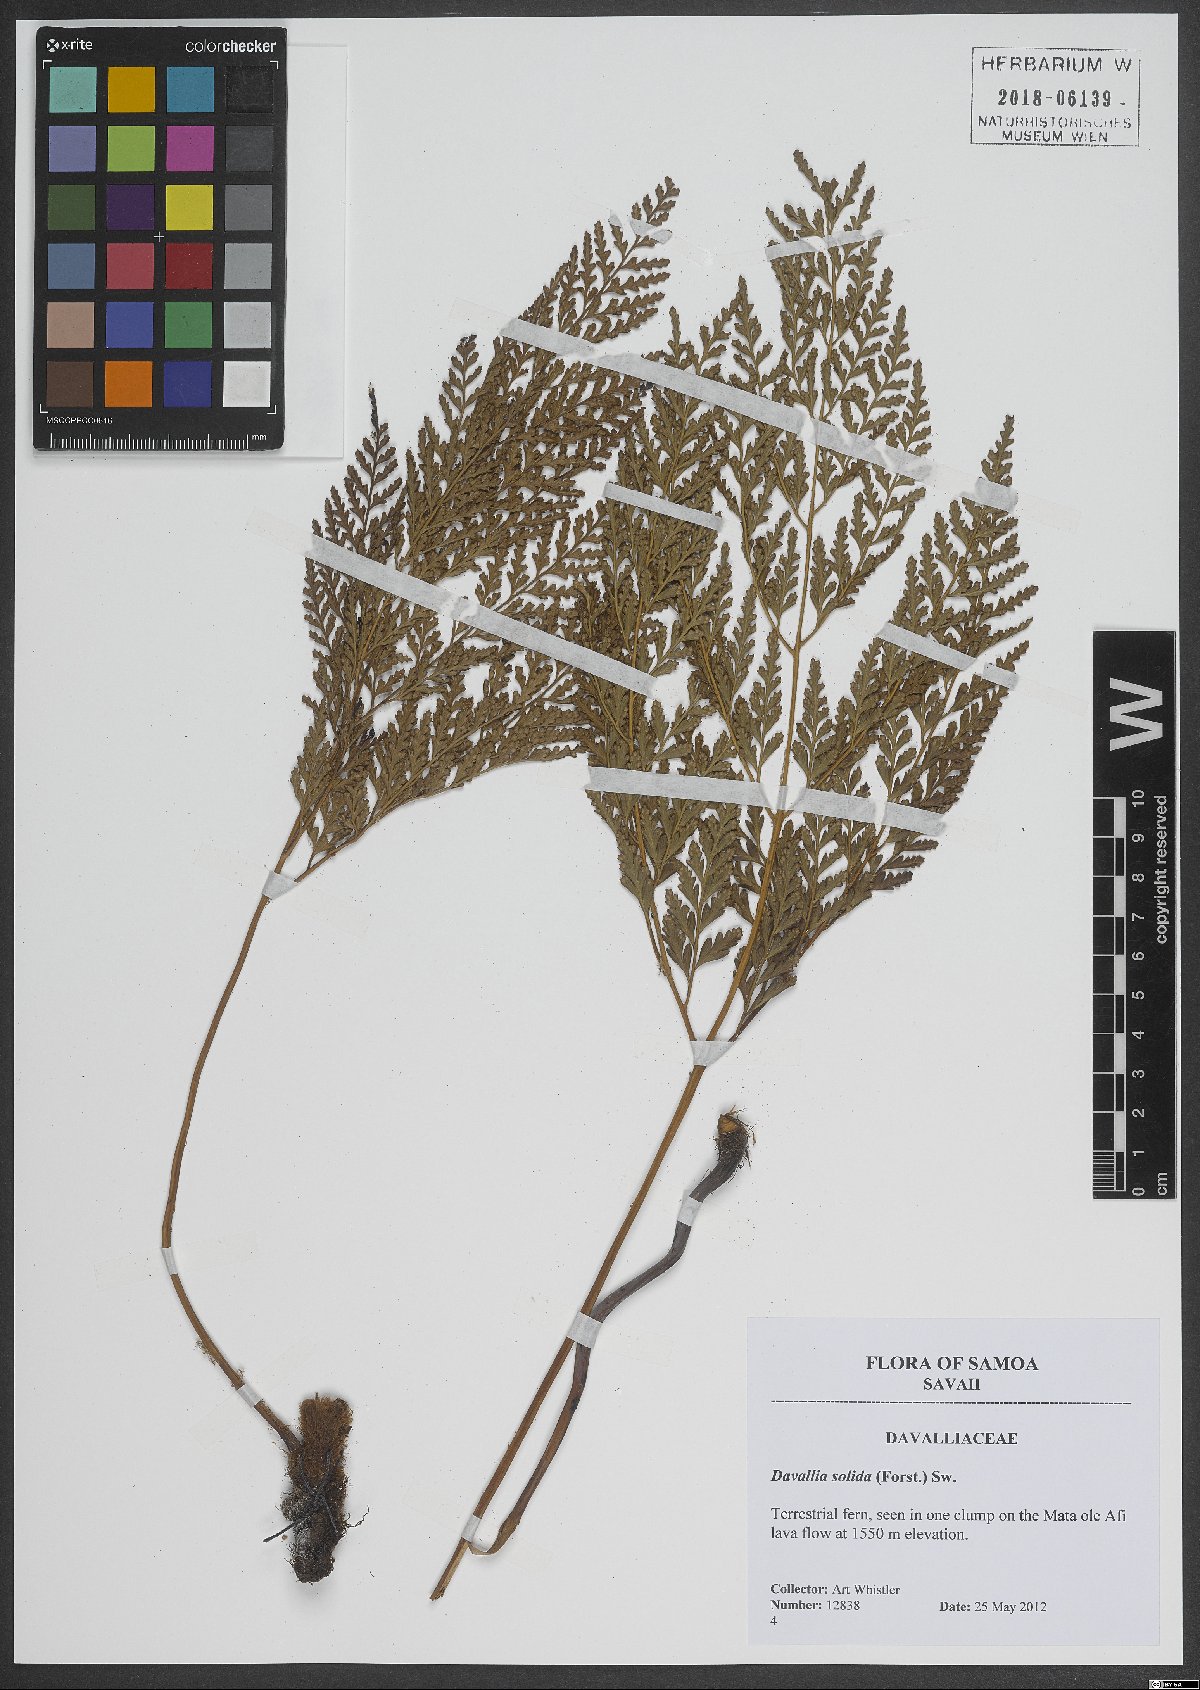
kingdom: Plantae
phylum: Tracheophyta
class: Polypodiopsida
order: Polypodiales
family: Davalliaceae
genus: Davallia
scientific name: Davallia solida
